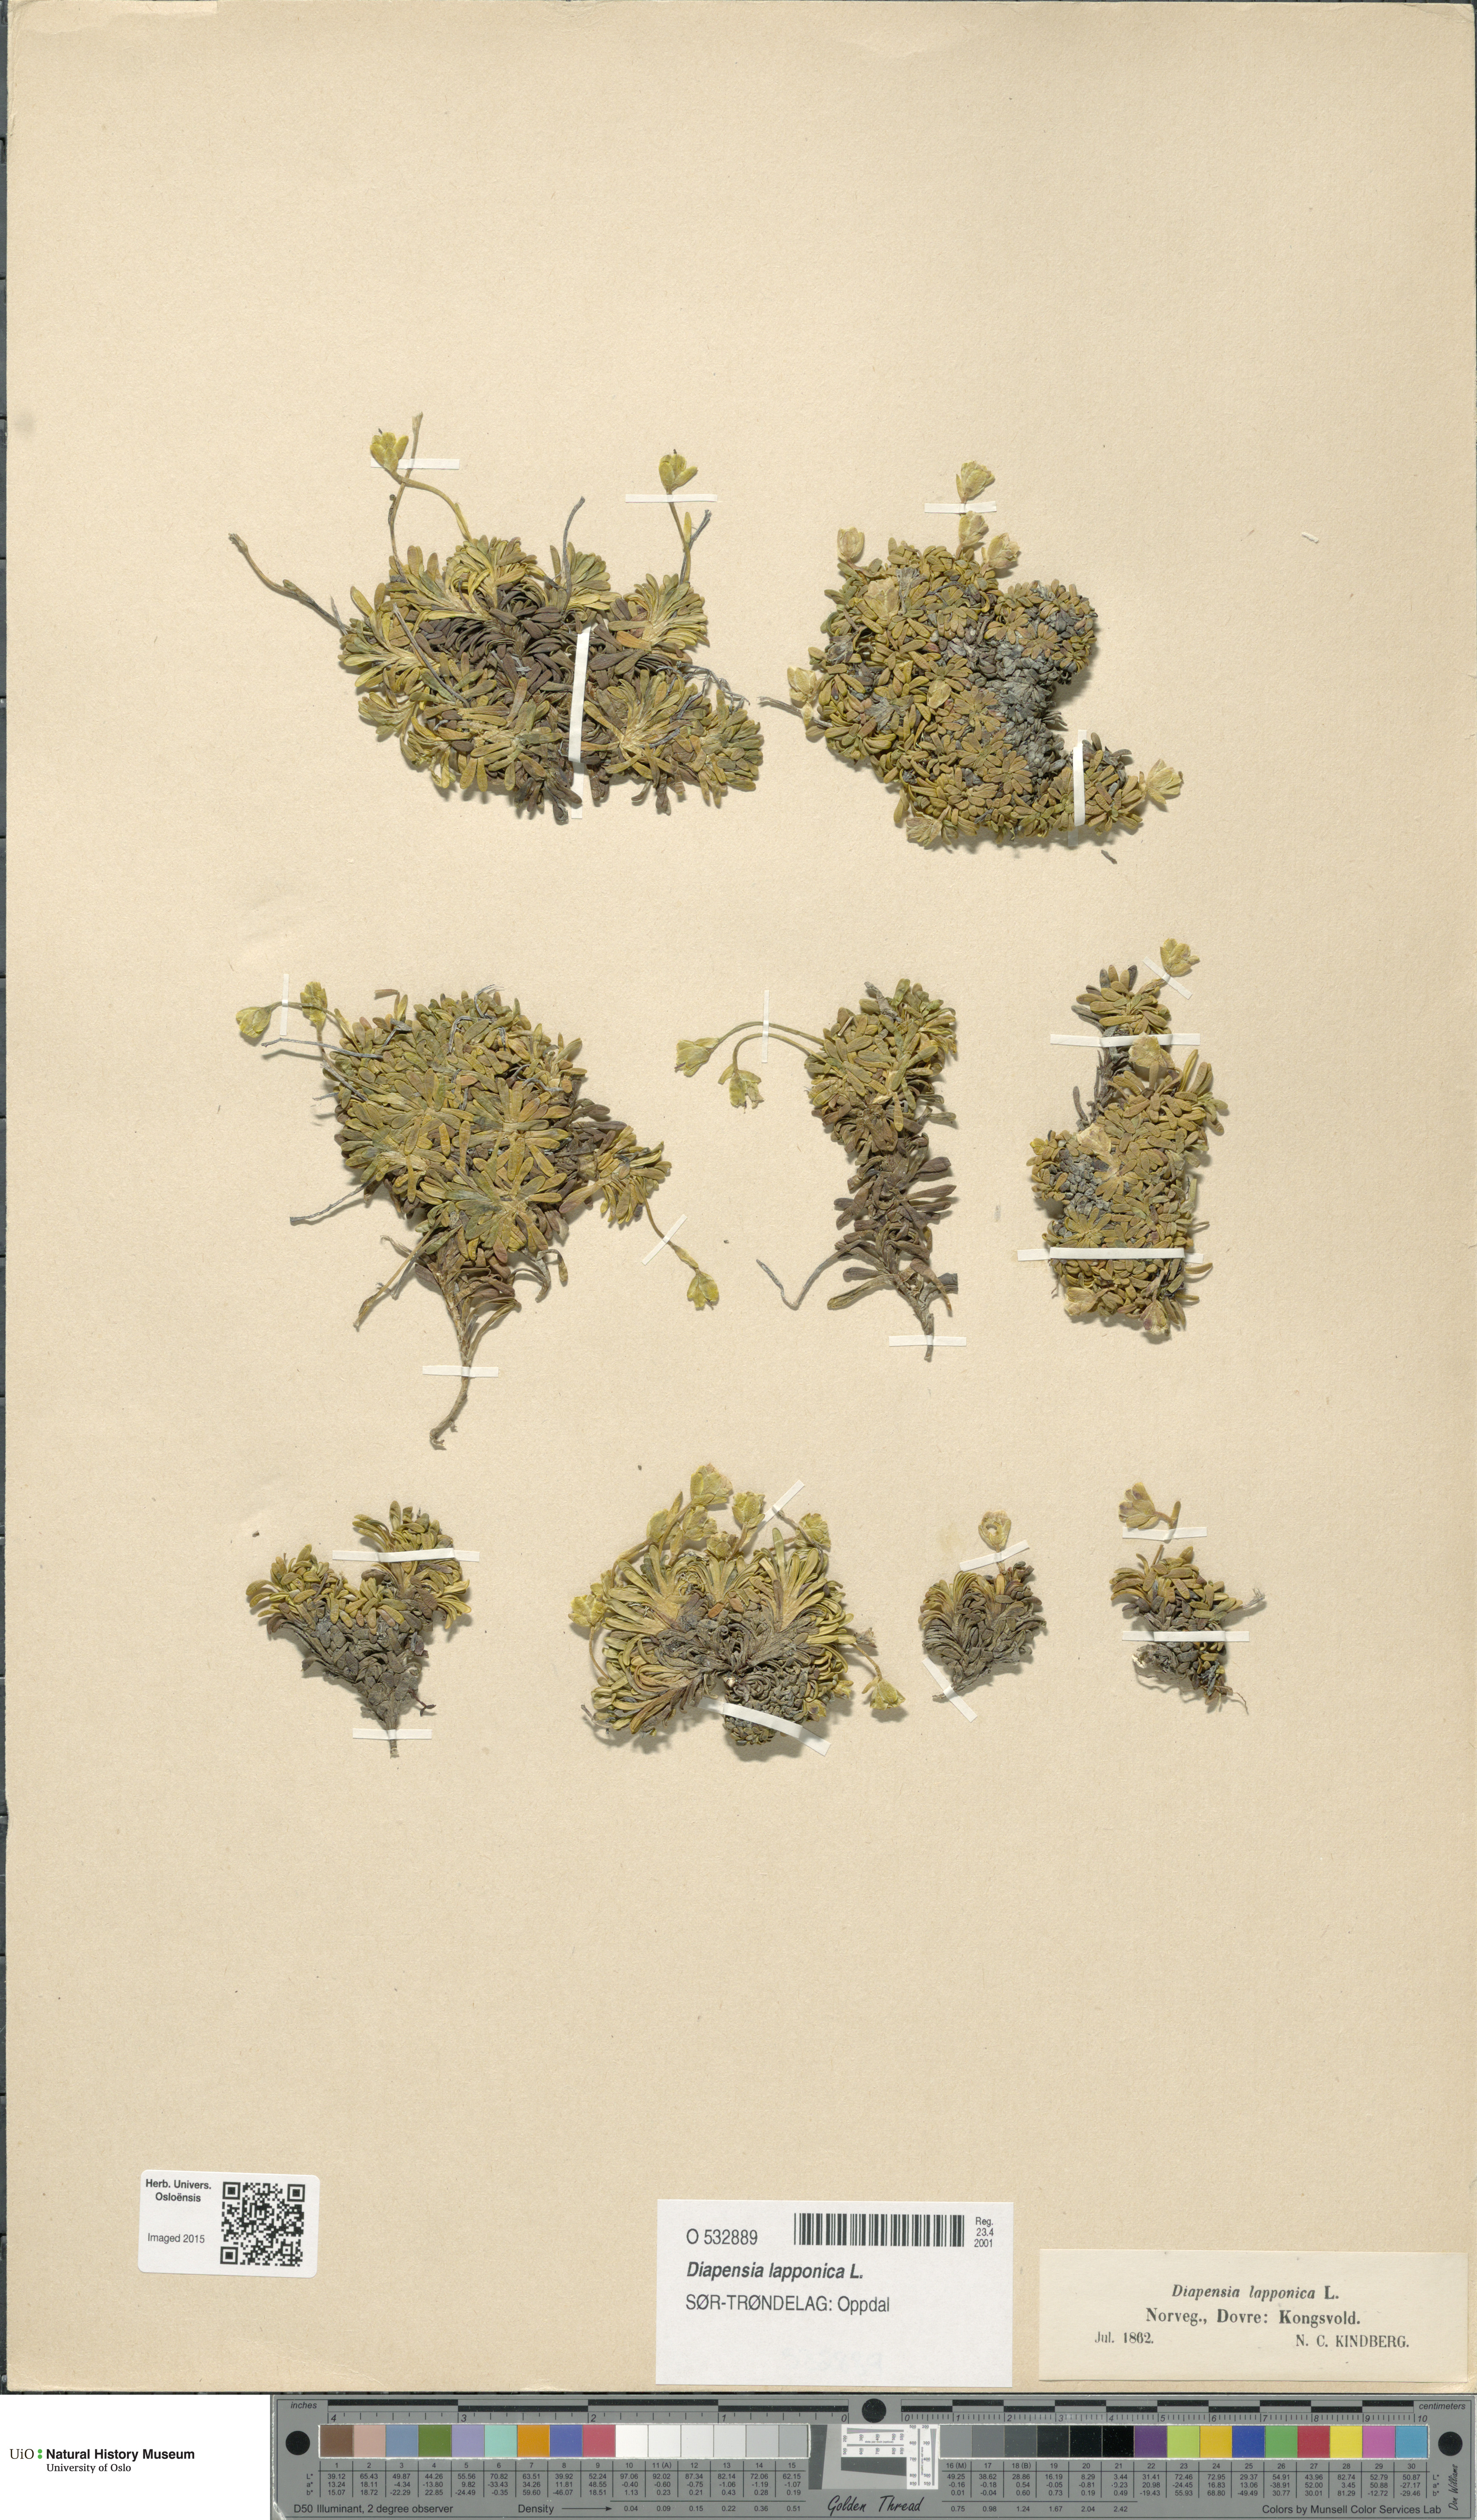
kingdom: Plantae
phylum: Tracheophyta
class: Magnoliopsida
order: Ericales
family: Diapensiaceae
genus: Diapensia
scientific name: Diapensia lapponica
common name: Diapensia
